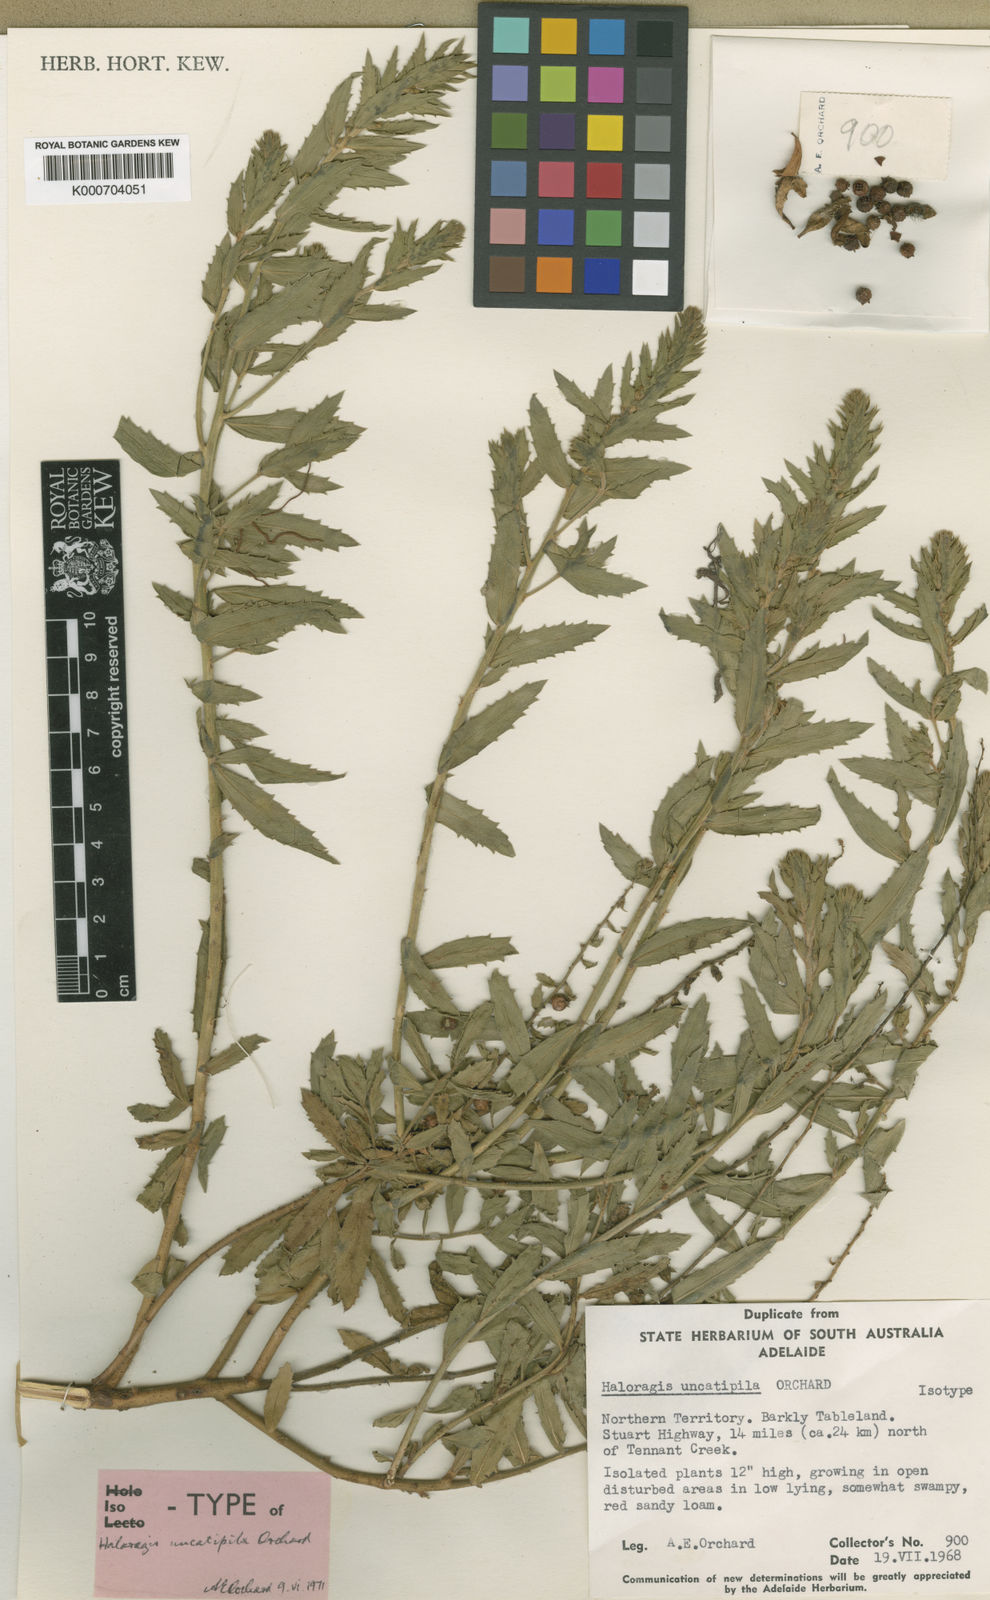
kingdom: Plantae
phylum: Tracheophyta
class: Magnoliopsida
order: Saxifragales
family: Haloragaceae
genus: Haloragis
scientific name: Haloragis uncatipila
